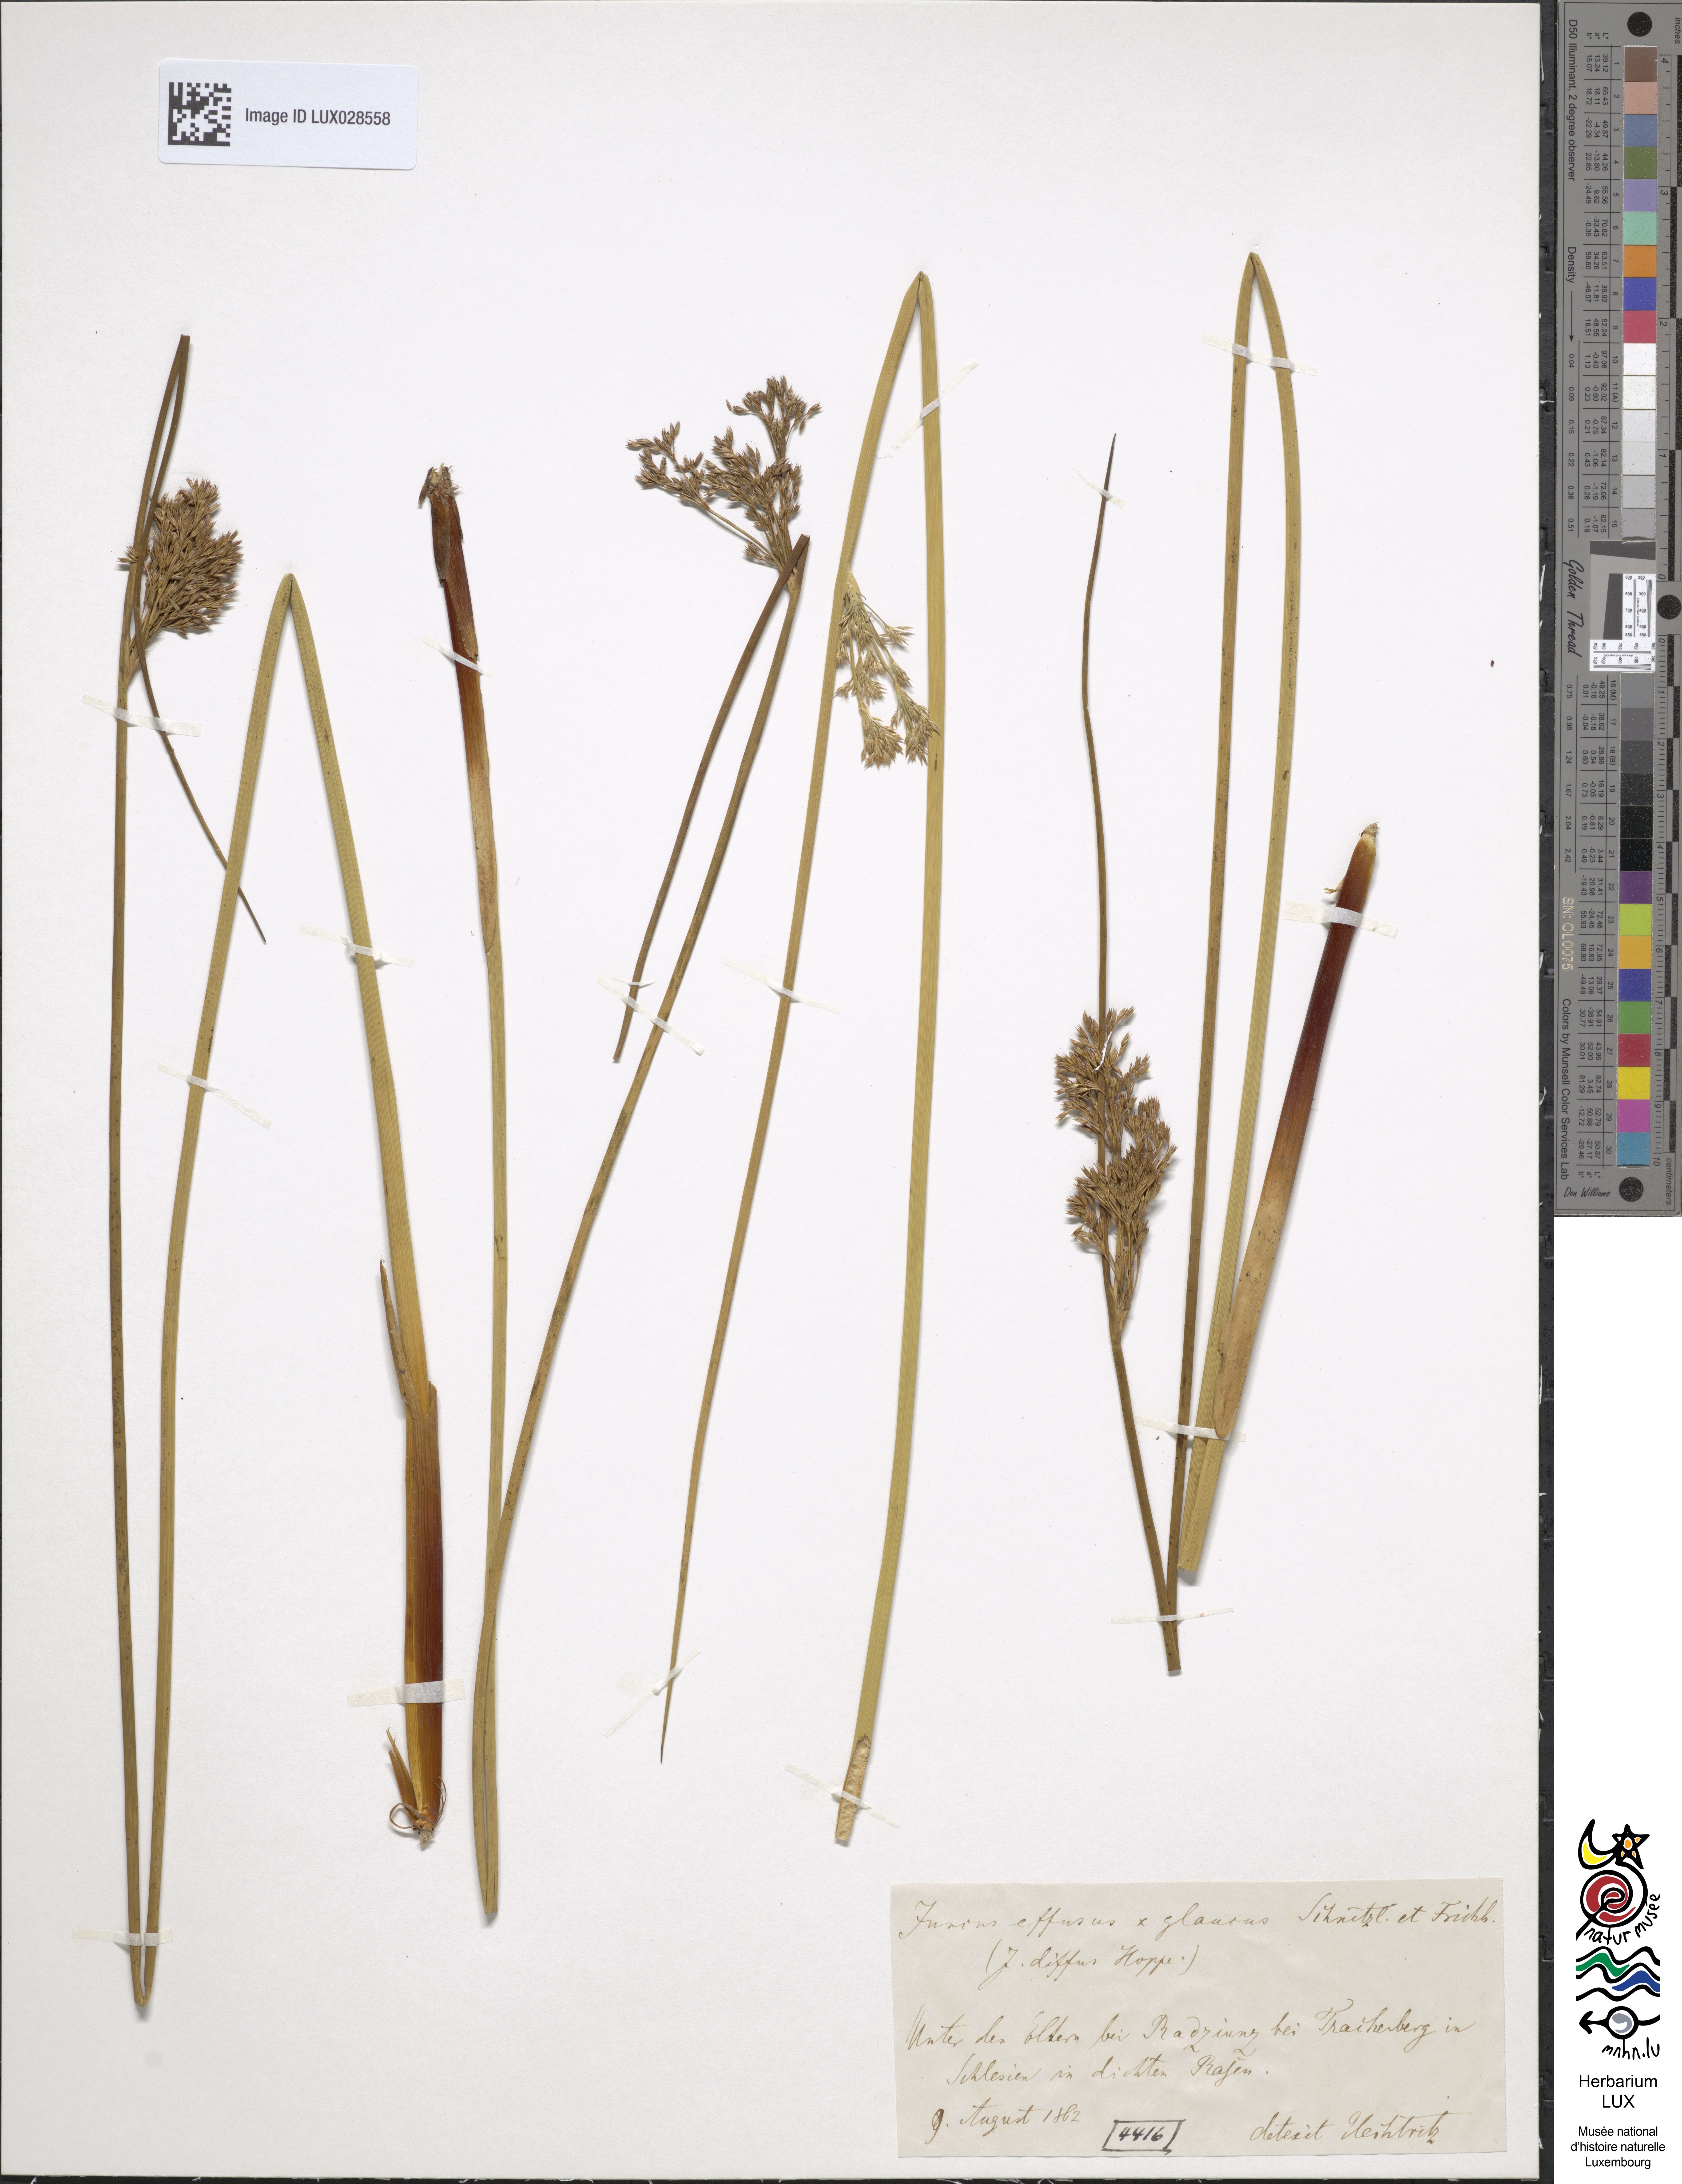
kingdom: Plantae
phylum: Tracheophyta
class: Liliopsida
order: Poales
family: Juncaceae
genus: Juncus
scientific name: Juncus diffusus
